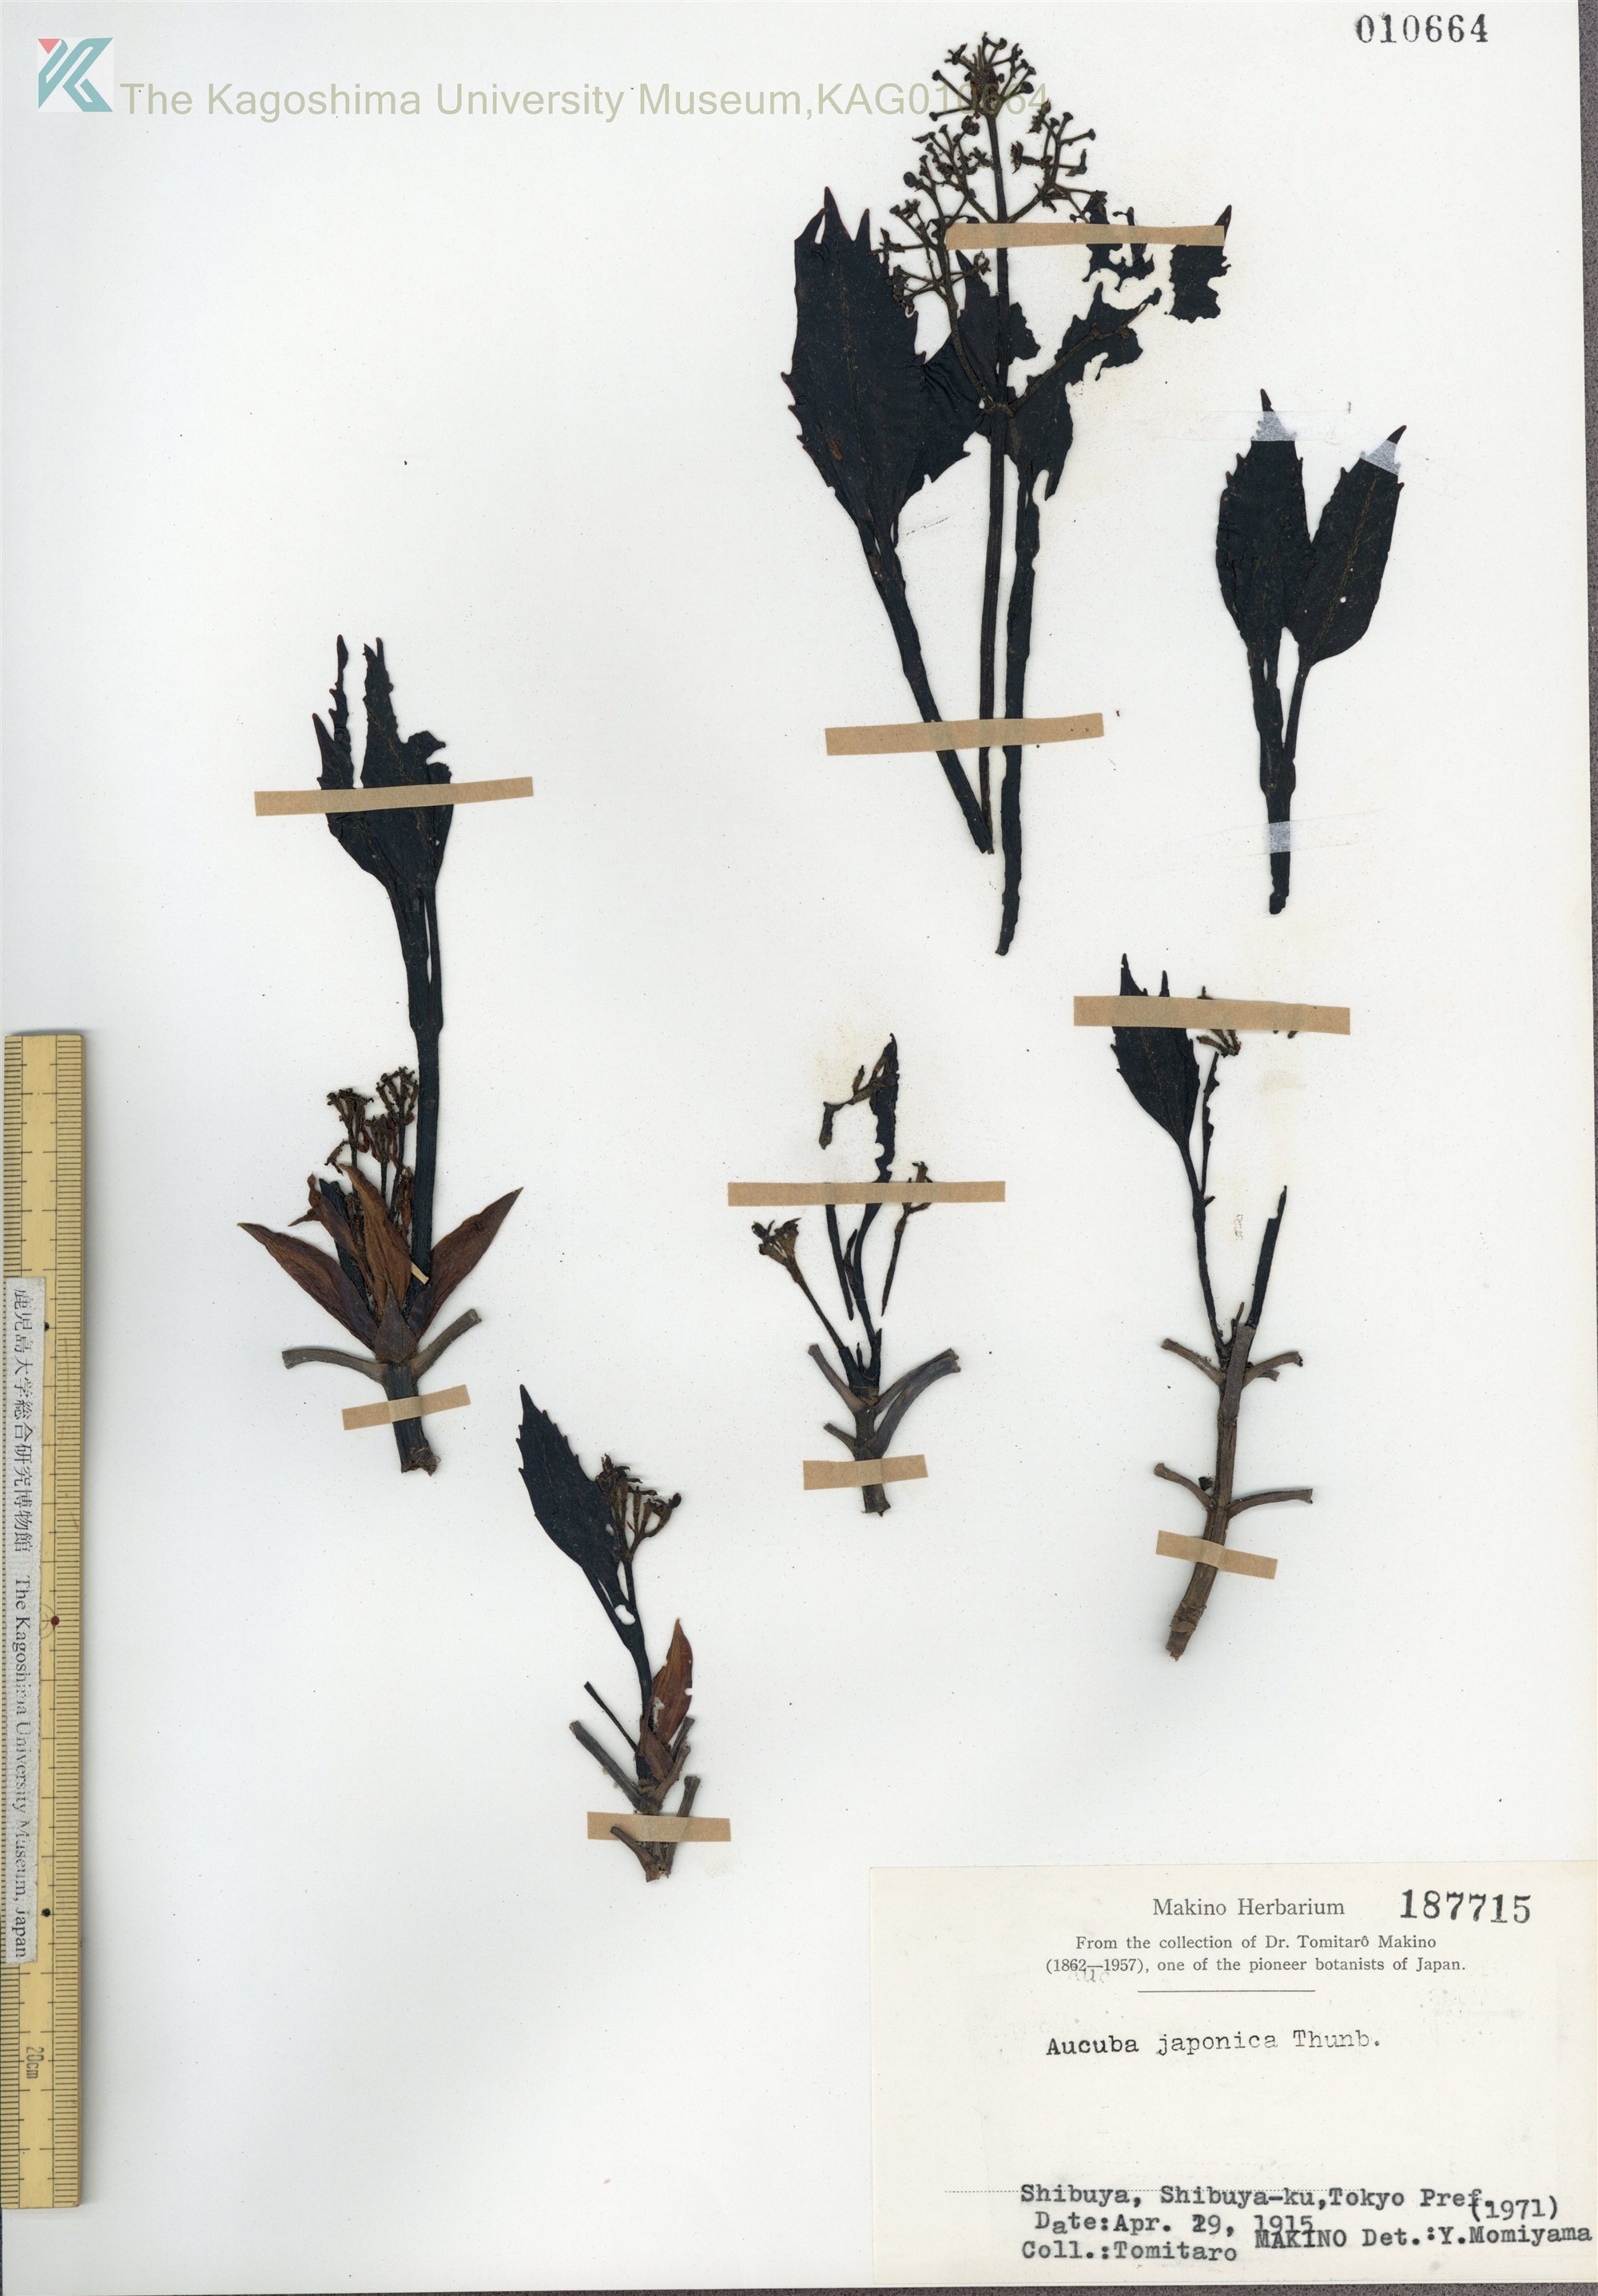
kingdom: Plantae
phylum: Tracheophyta
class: Magnoliopsida
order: Garryales
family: Garryaceae
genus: Aucuba
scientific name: Aucuba japonica
